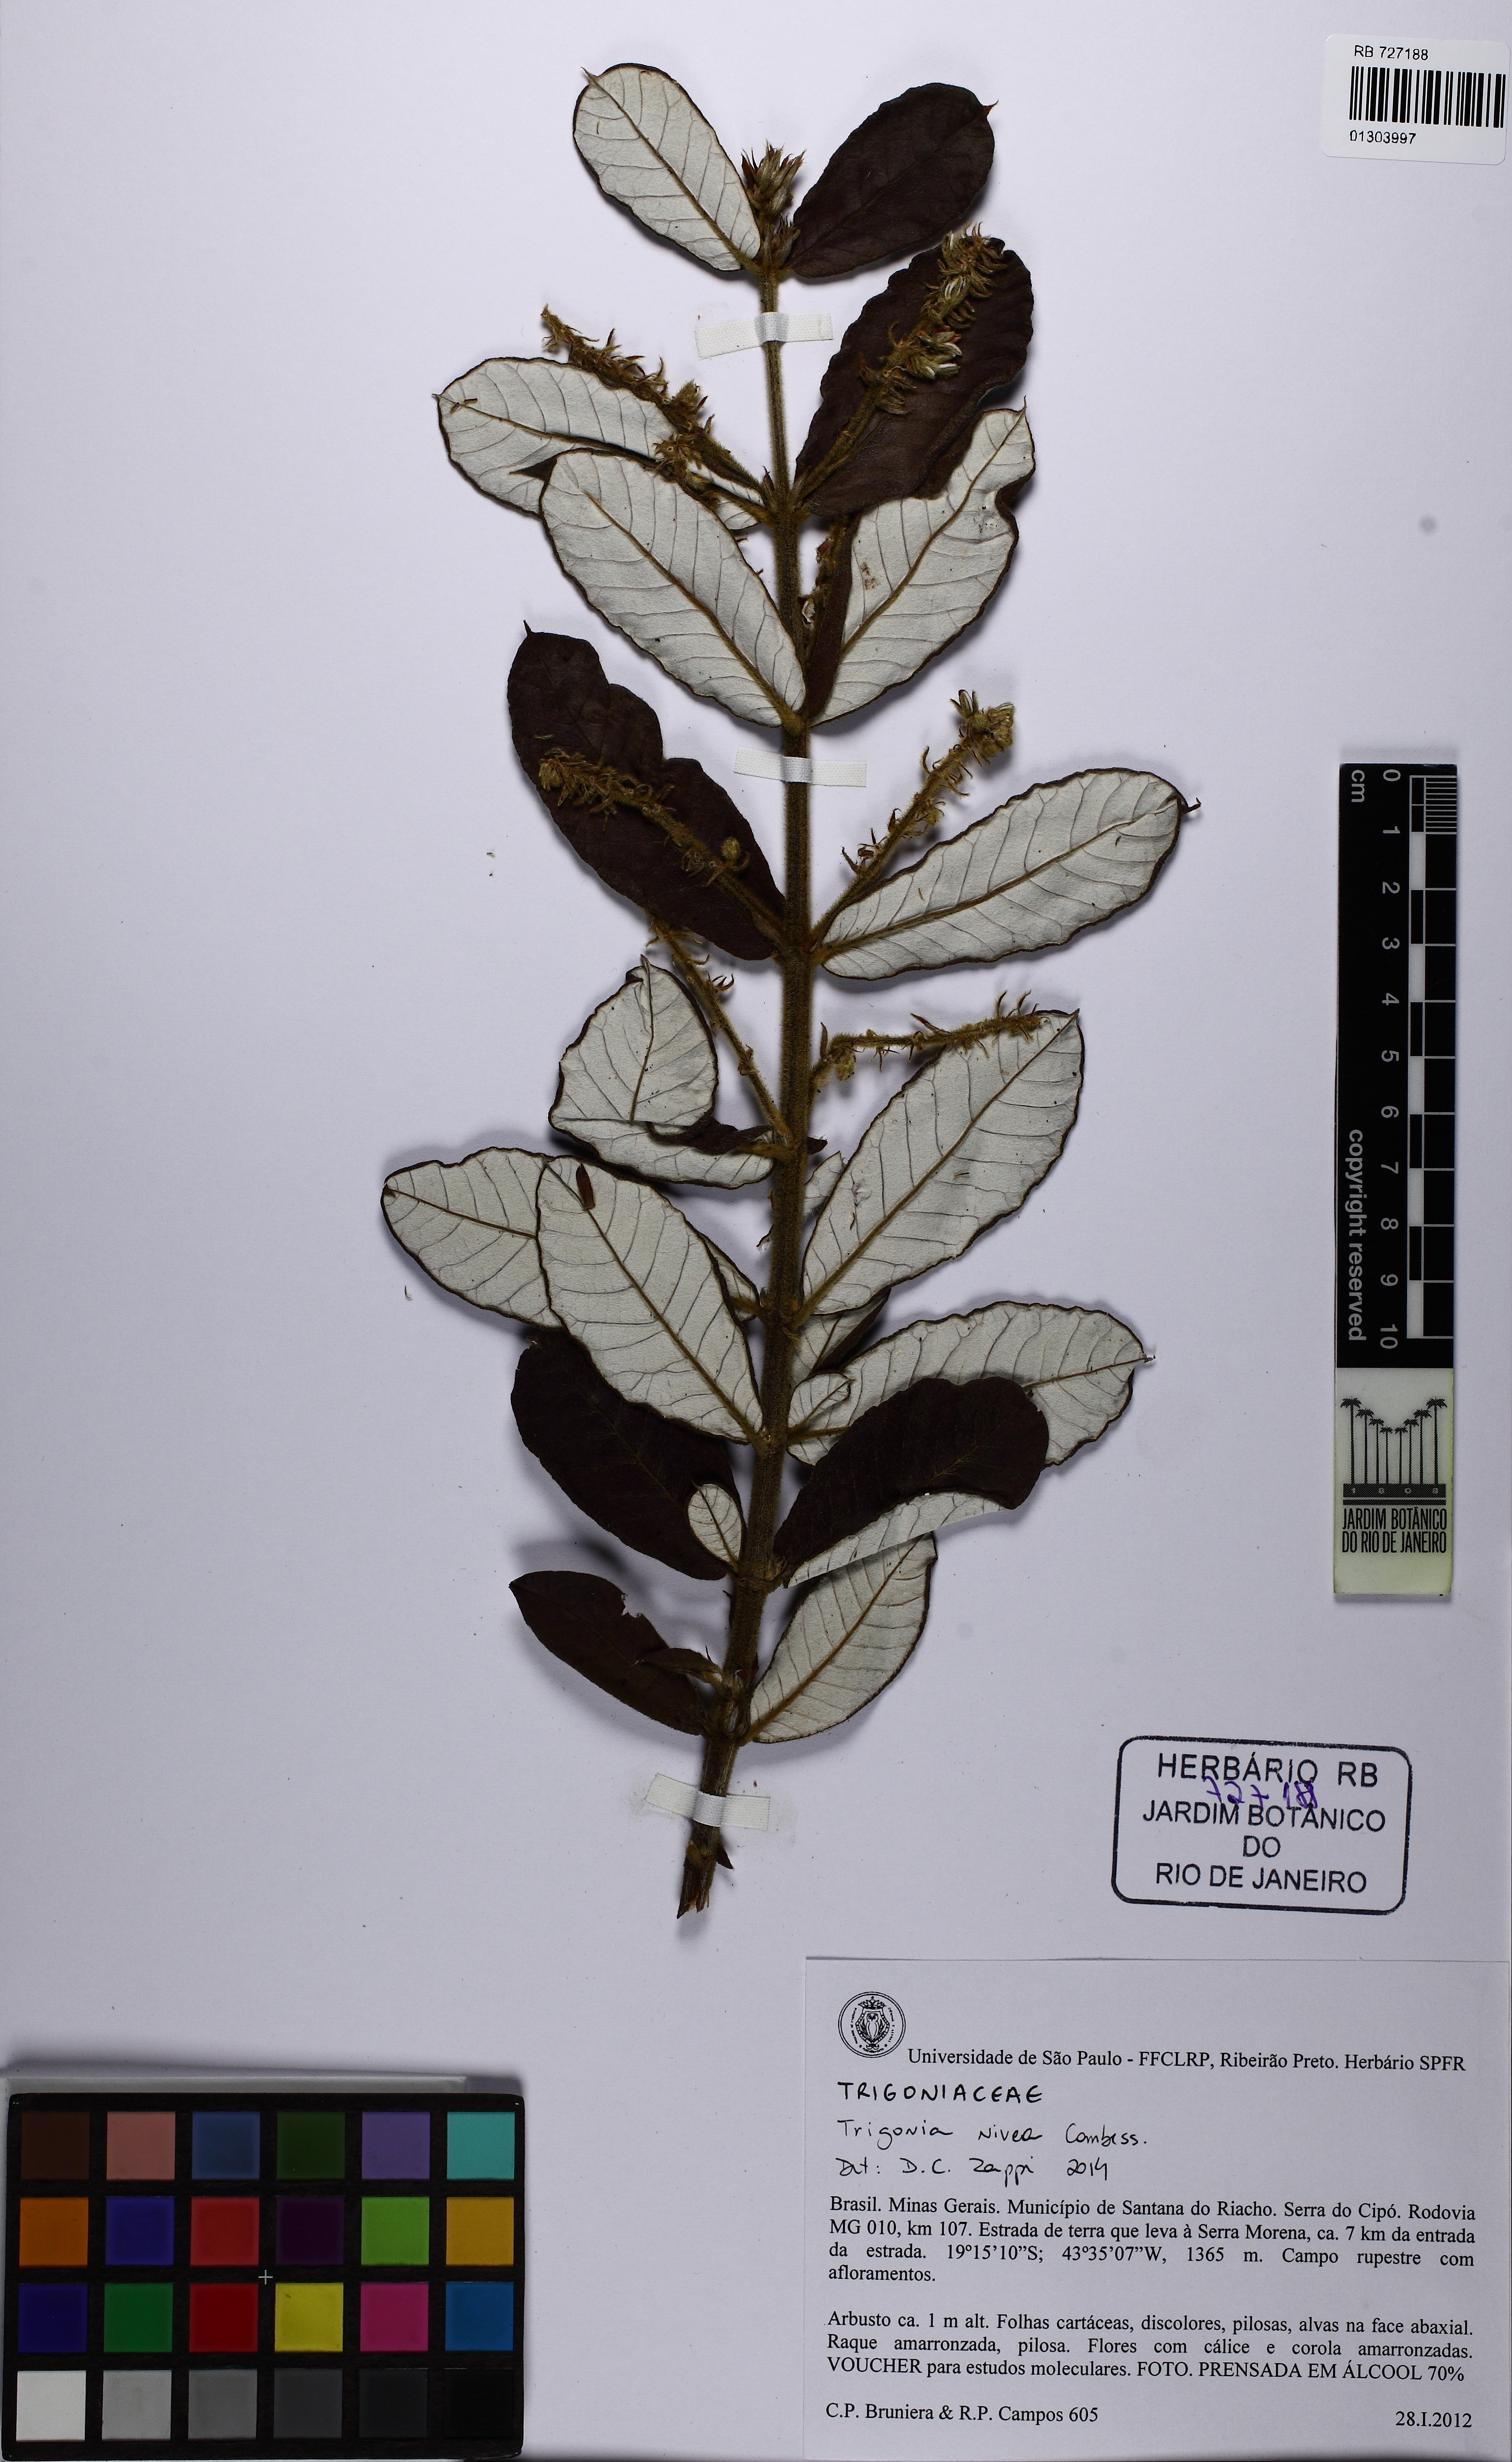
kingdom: Plantae
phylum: Tracheophyta
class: Magnoliopsida
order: Malpighiales
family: Trigoniaceae
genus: Trigonia
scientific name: Trigonia nivea
